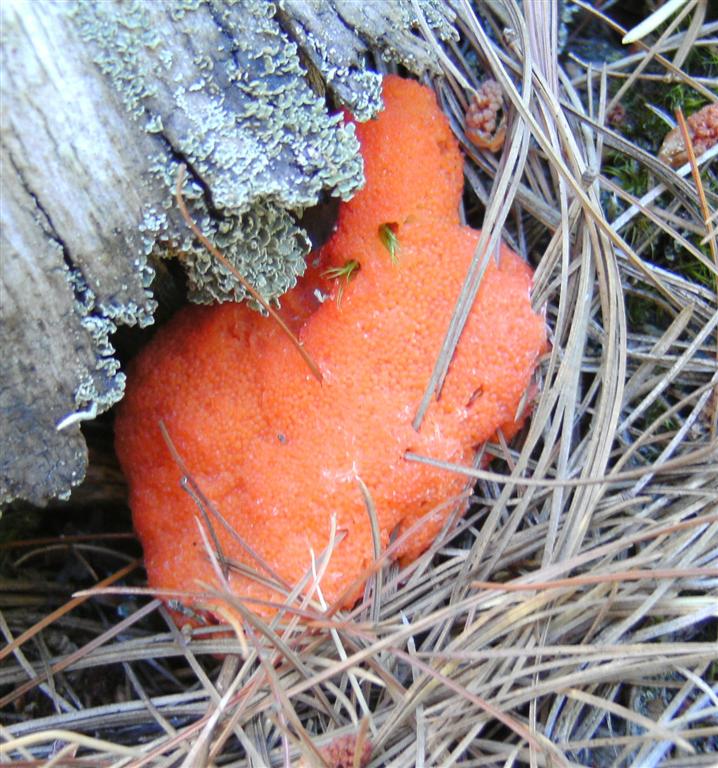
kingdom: Protozoa
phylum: Mycetozoa
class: Myxomycetes
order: Cribrariales
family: Tubiferaceae
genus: Tubifera
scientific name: Tubifera ferruginosa
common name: kanel-støvrør
